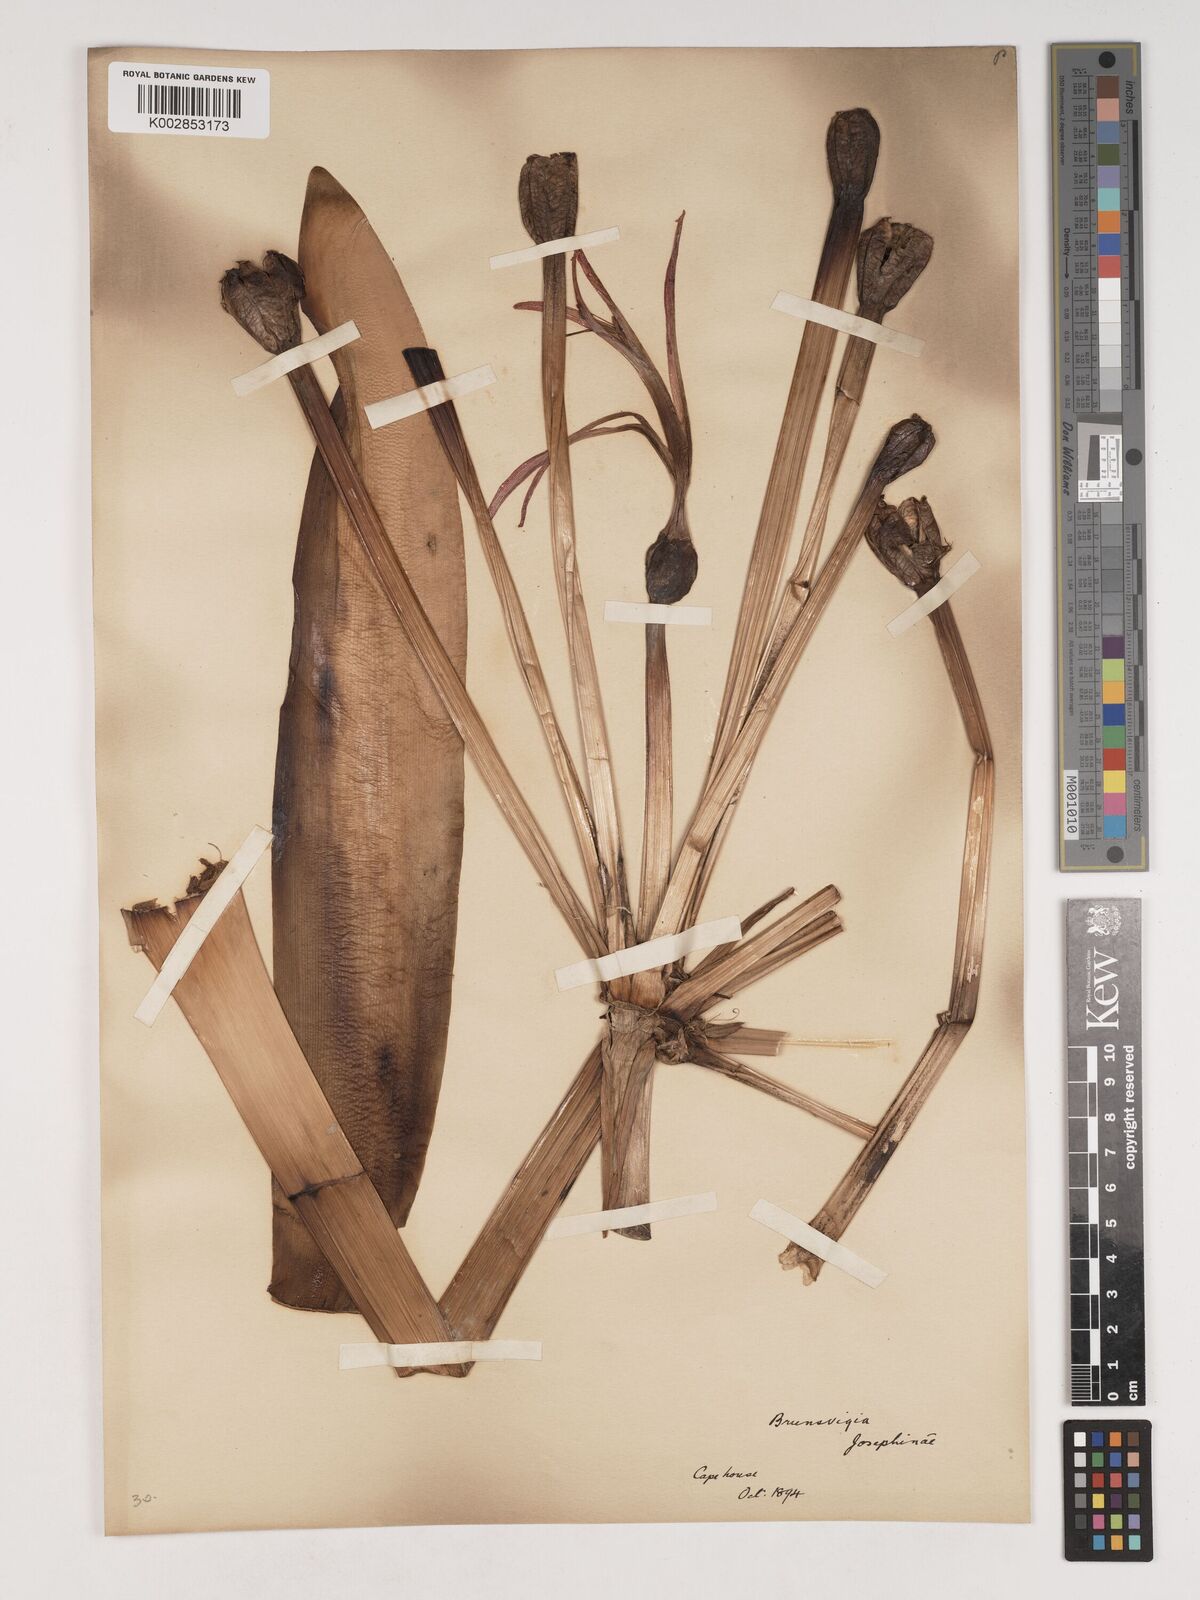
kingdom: Plantae
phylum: Tracheophyta
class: Liliopsida
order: Asparagales
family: Amaryllidaceae
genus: Brunsvigia
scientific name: Brunsvigia josephinae
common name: Josephine's-lily
